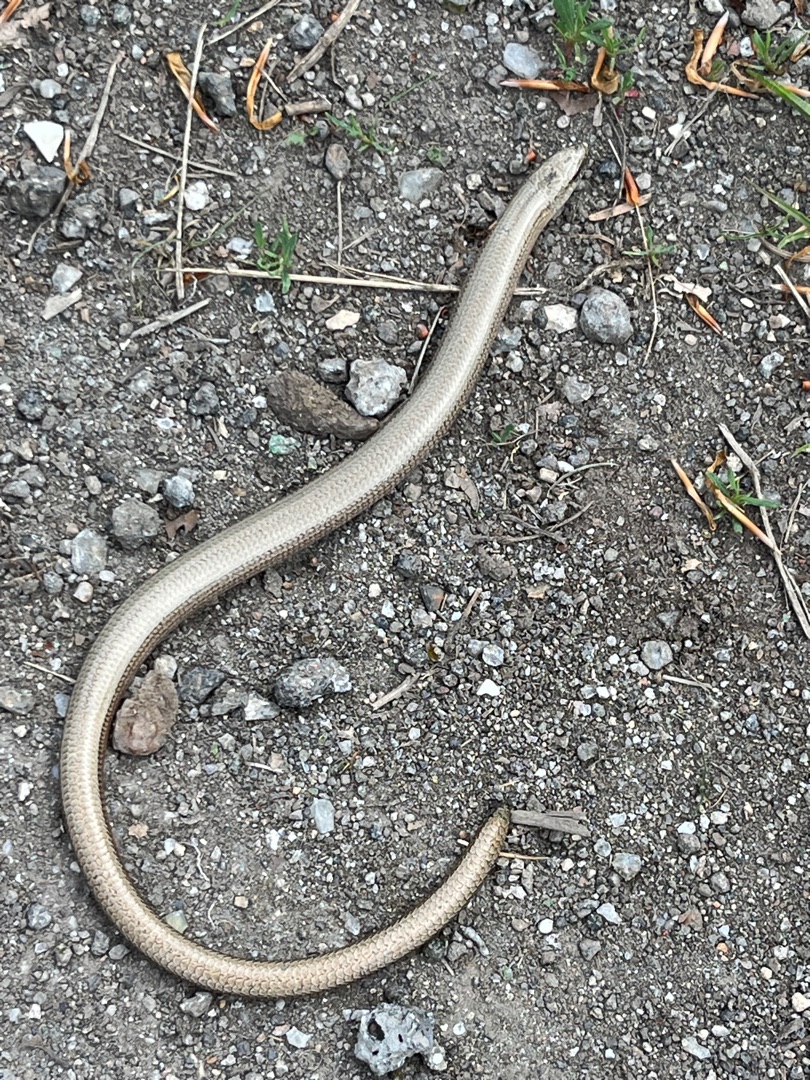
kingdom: Animalia
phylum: Chordata
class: Squamata
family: Anguidae
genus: Anguis
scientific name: Anguis fragilis
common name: Stålorm
